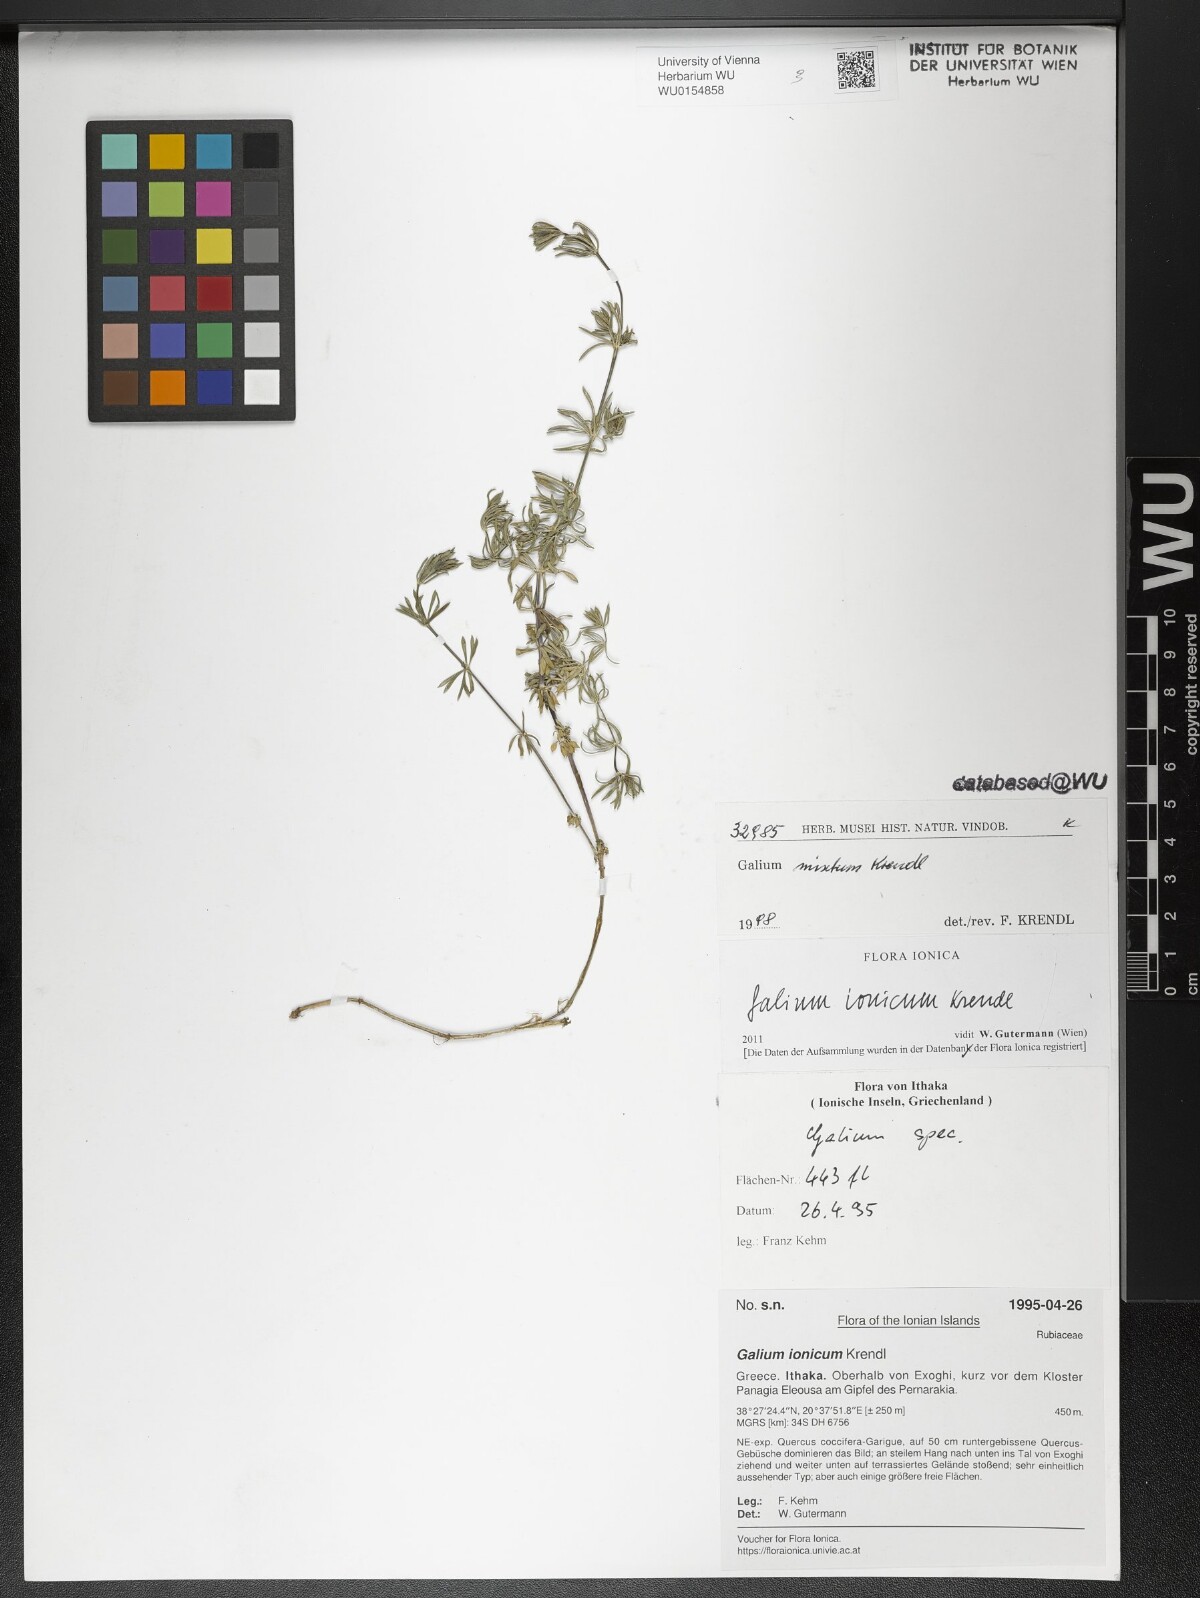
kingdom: Plantae
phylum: Tracheophyta
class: Magnoliopsida
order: Gentianales
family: Rubiaceae
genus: Galium
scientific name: Galium ionicum
